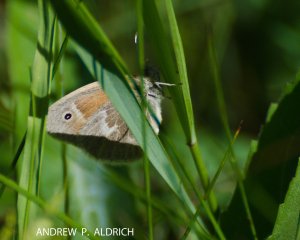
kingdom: Animalia
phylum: Arthropoda
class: Insecta
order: Lepidoptera
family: Nymphalidae
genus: Coenonympha
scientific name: Coenonympha tullia
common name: Large Heath
